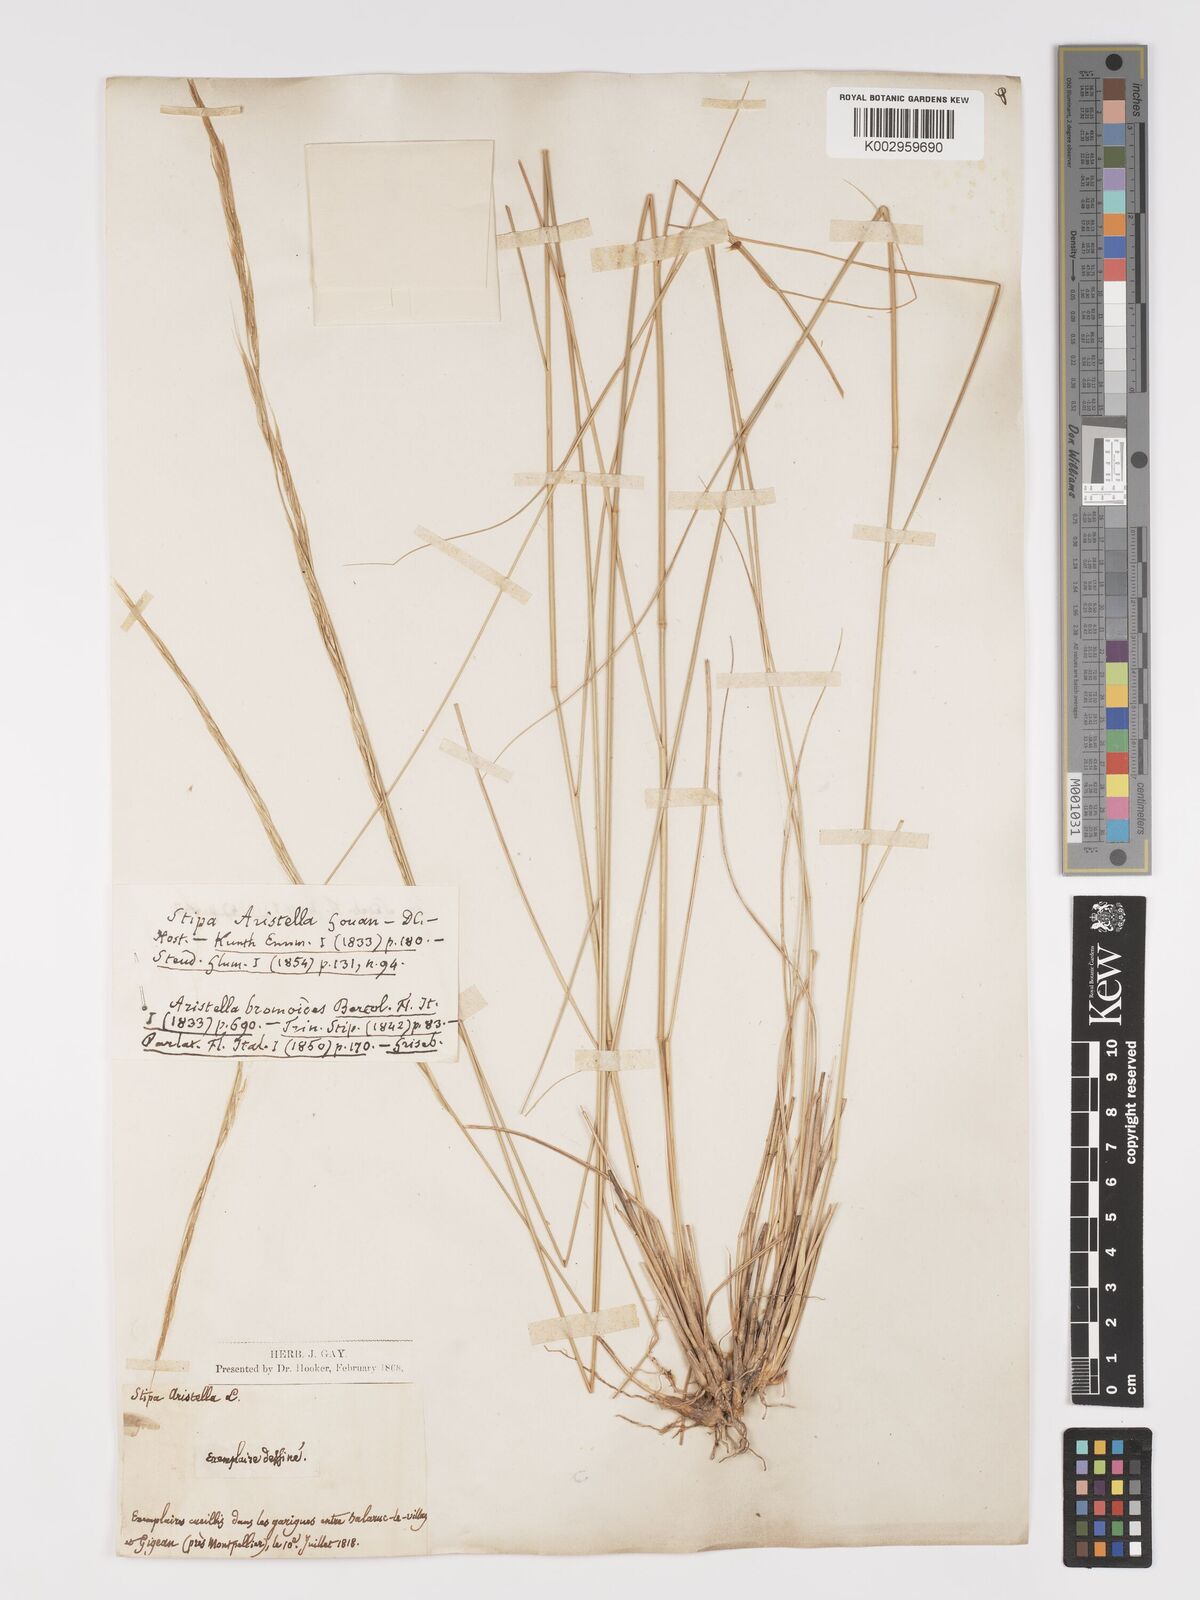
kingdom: Plantae
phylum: Tracheophyta
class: Liliopsida
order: Poales
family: Poaceae
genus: Achnatherum
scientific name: Achnatherum bromoides
